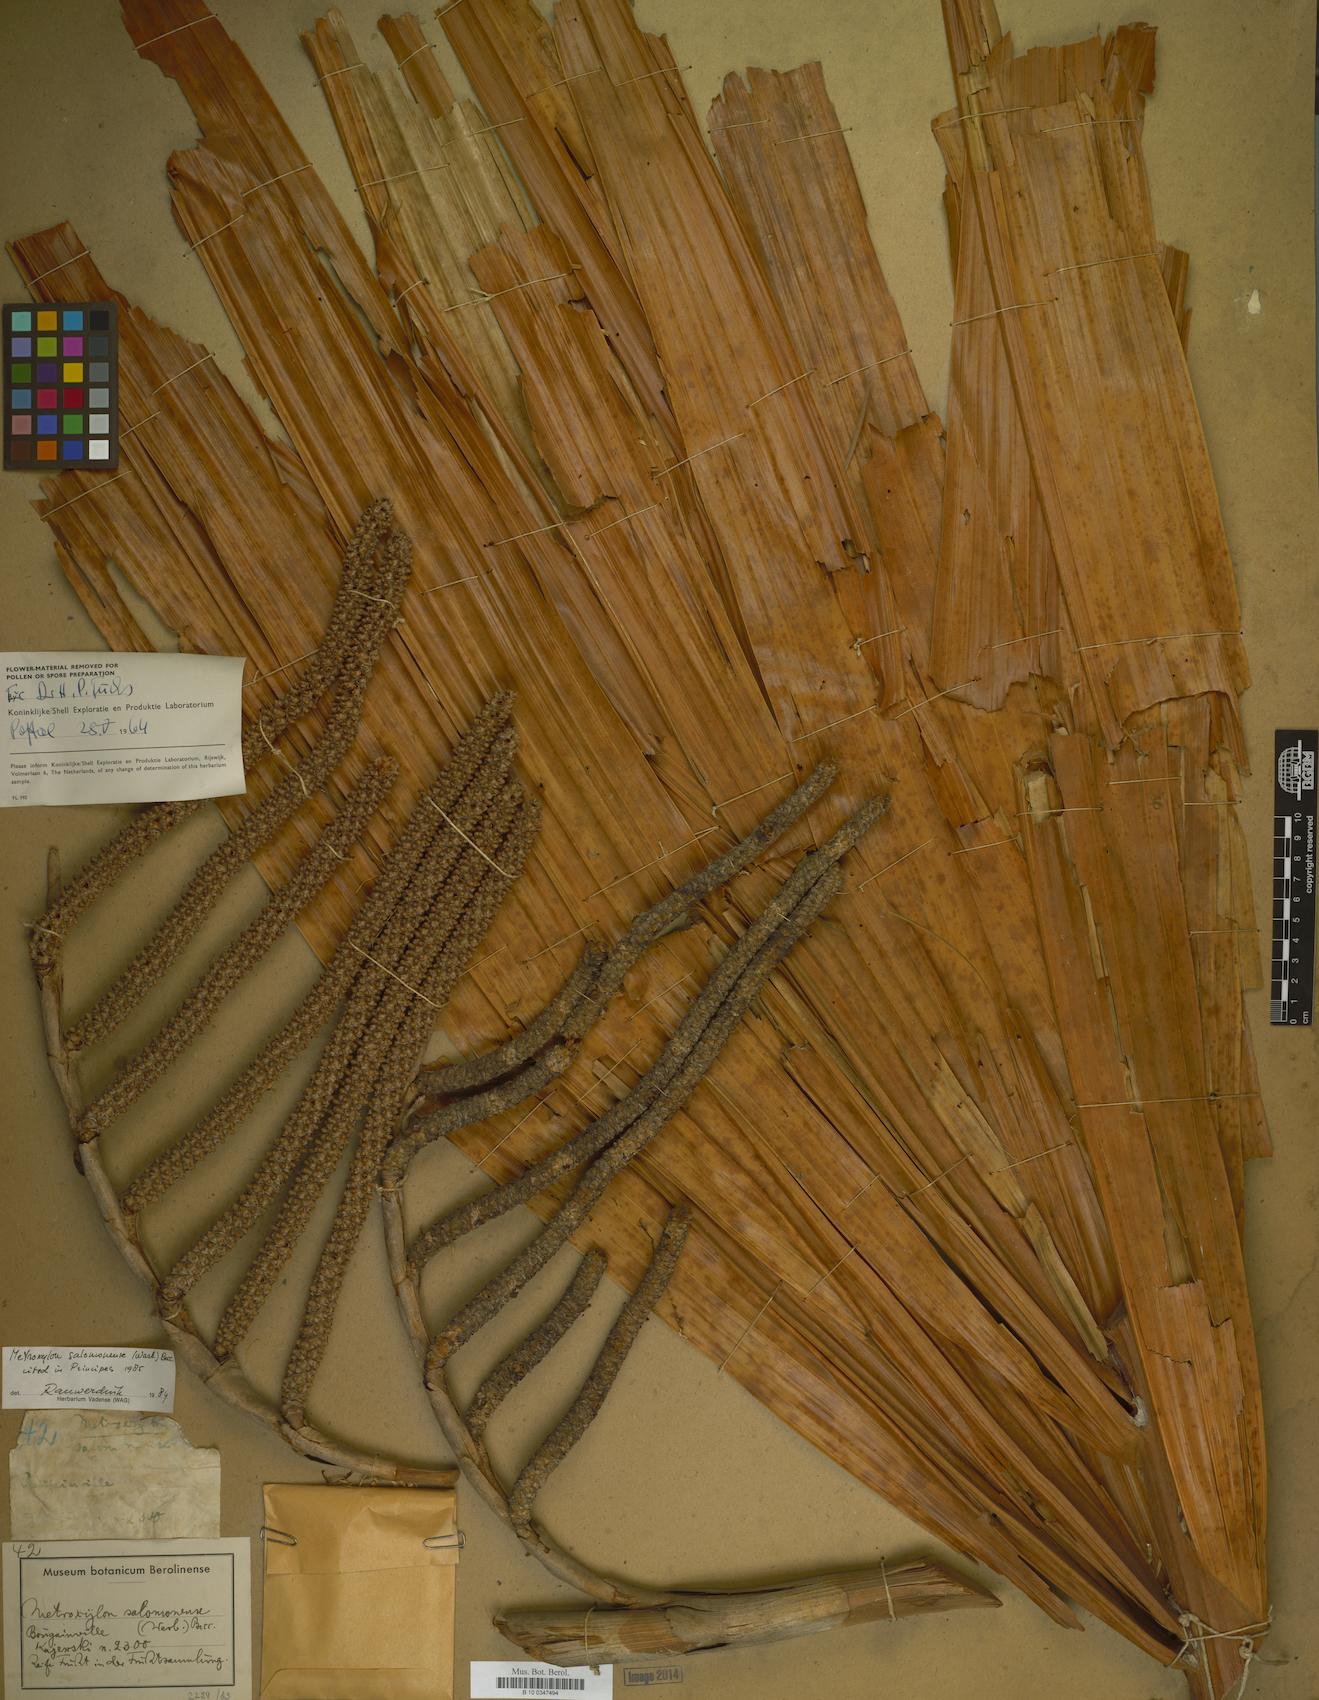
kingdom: Plantae
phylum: Tracheophyta
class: Liliopsida
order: Arecales
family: Arecaceae
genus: Metroxylon
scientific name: Metroxylon salomonense
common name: Solomon's sago palm
